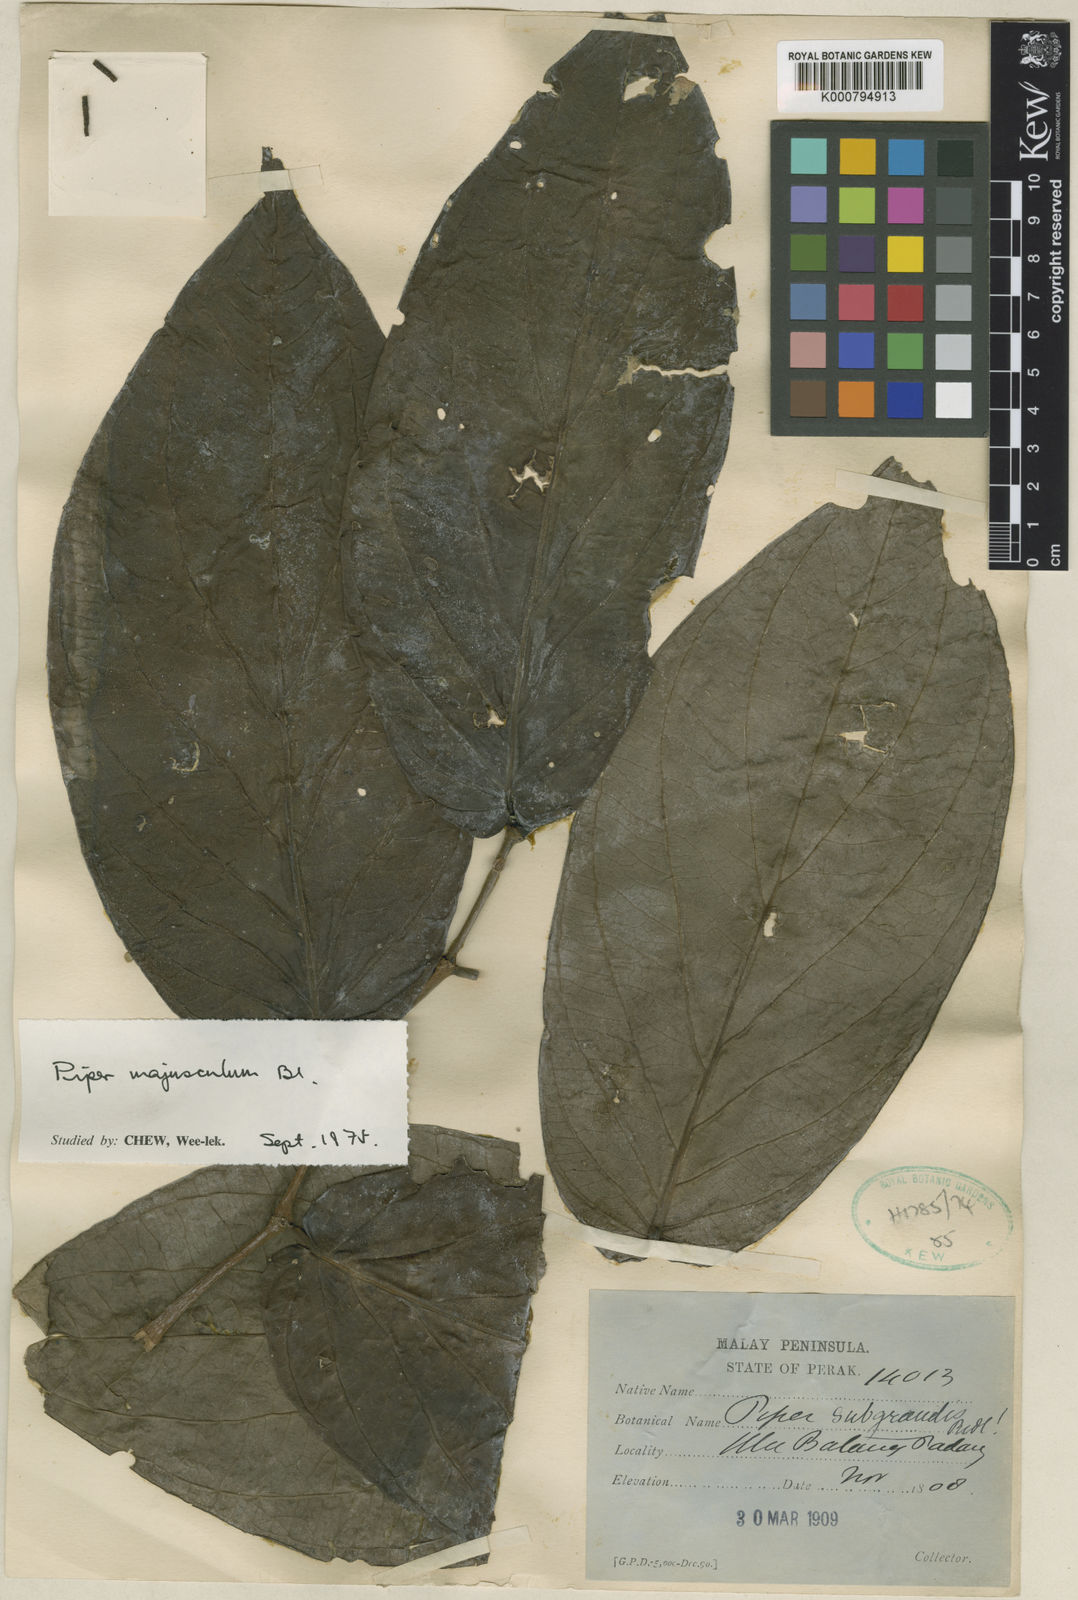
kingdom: Plantae
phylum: Tracheophyta
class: Magnoliopsida
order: Piperales
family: Piperaceae
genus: Piper
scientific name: Piper majusculum
